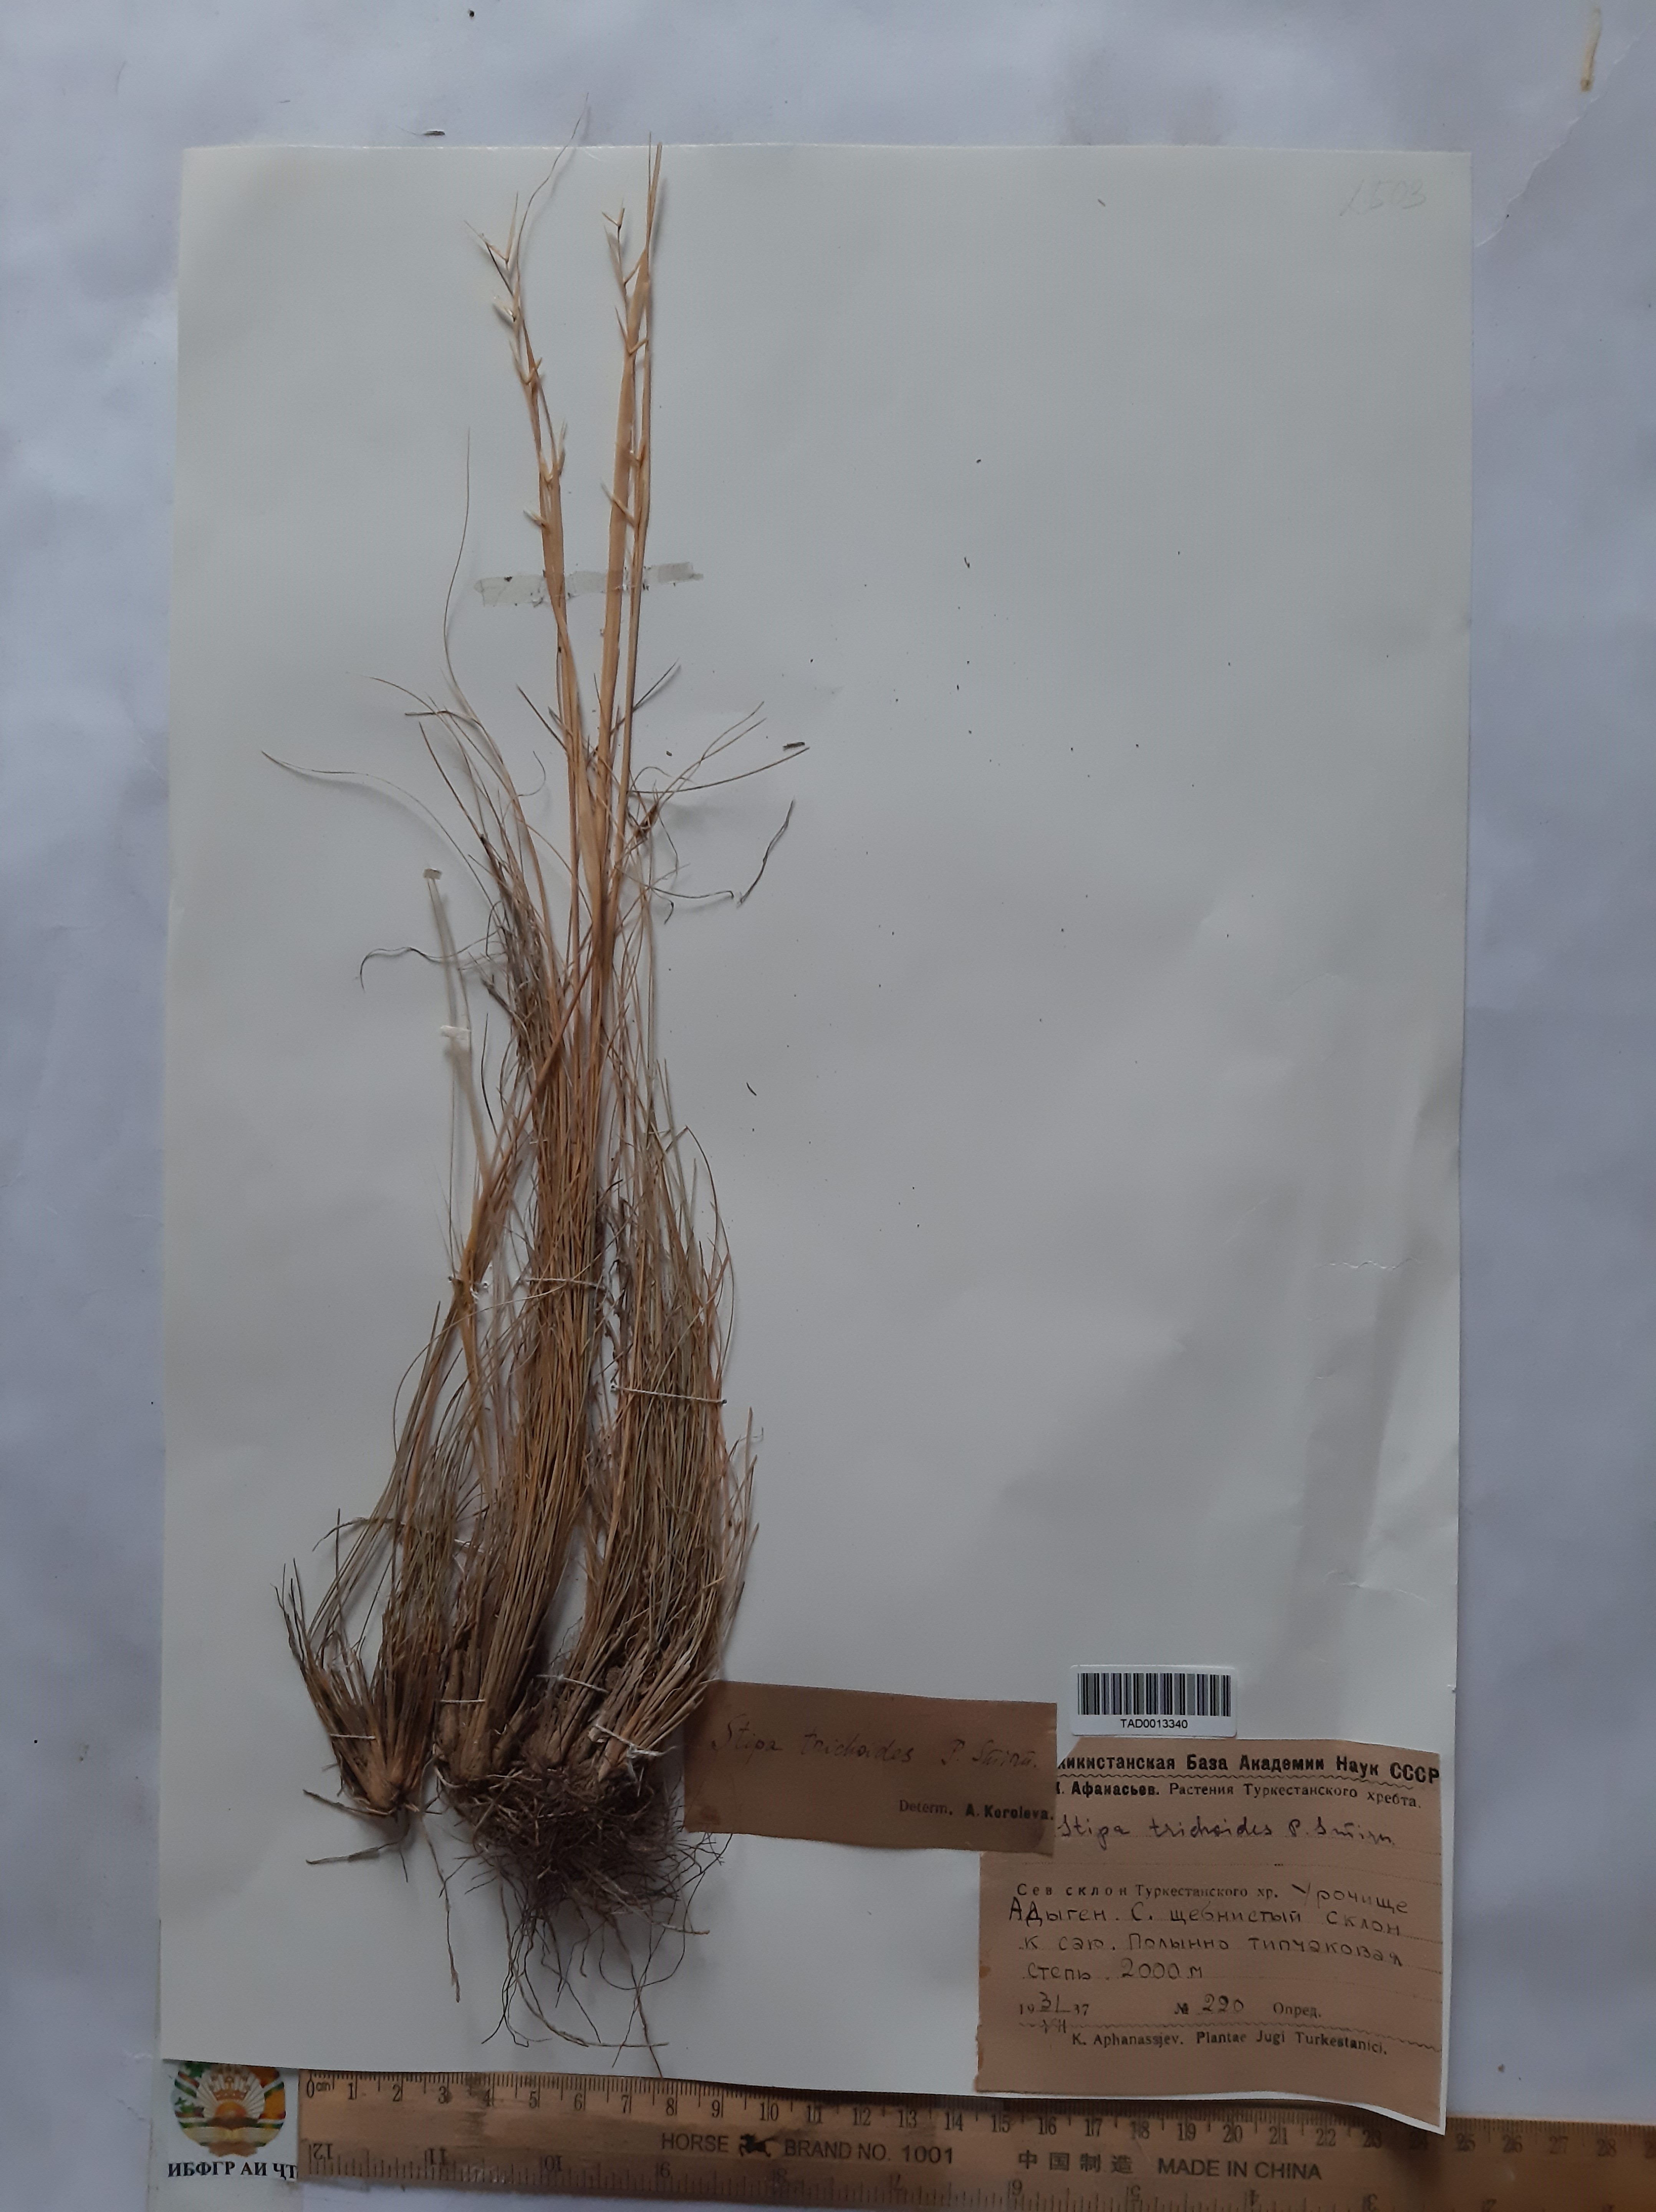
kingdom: Plantae
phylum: Tracheophyta
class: Liliopsida
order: Poales
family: Poaceae
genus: Achnatherum
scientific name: Achnatherum turcomanicum
